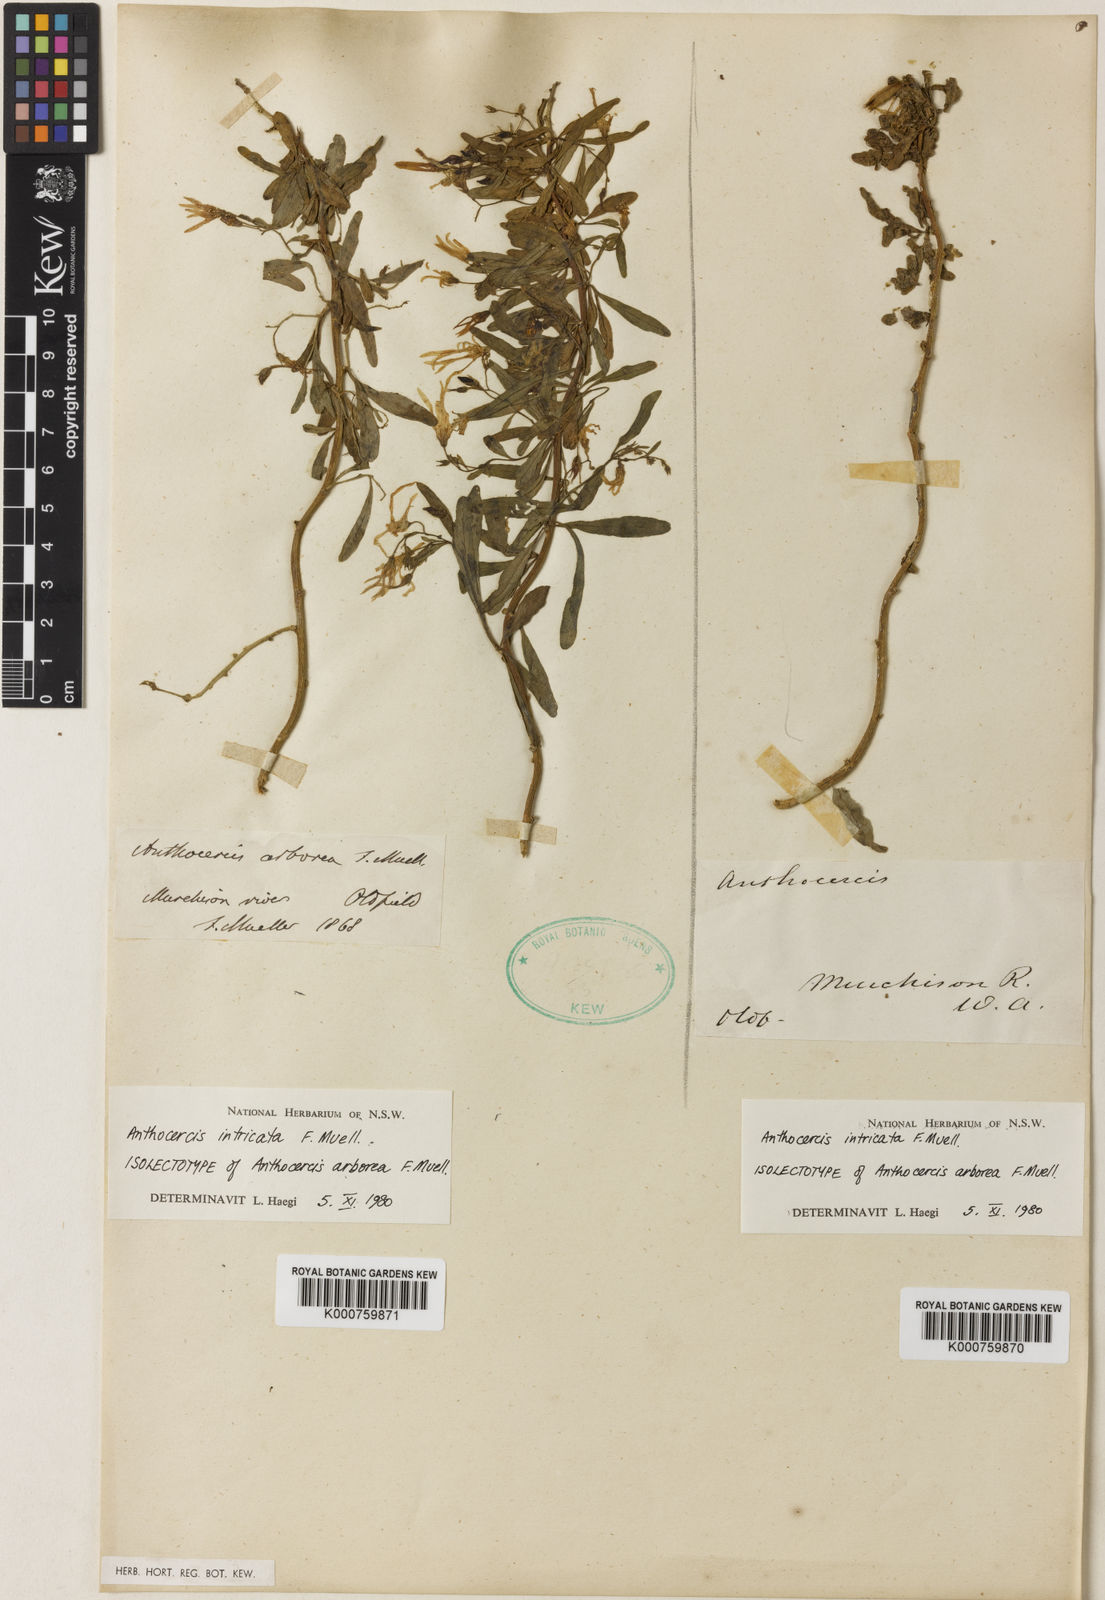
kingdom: Plantae
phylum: Tracheophyta
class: Magnoliopsida
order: Solanales
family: Solanaceae
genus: Anthocercis
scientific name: Anthocercis intricata
